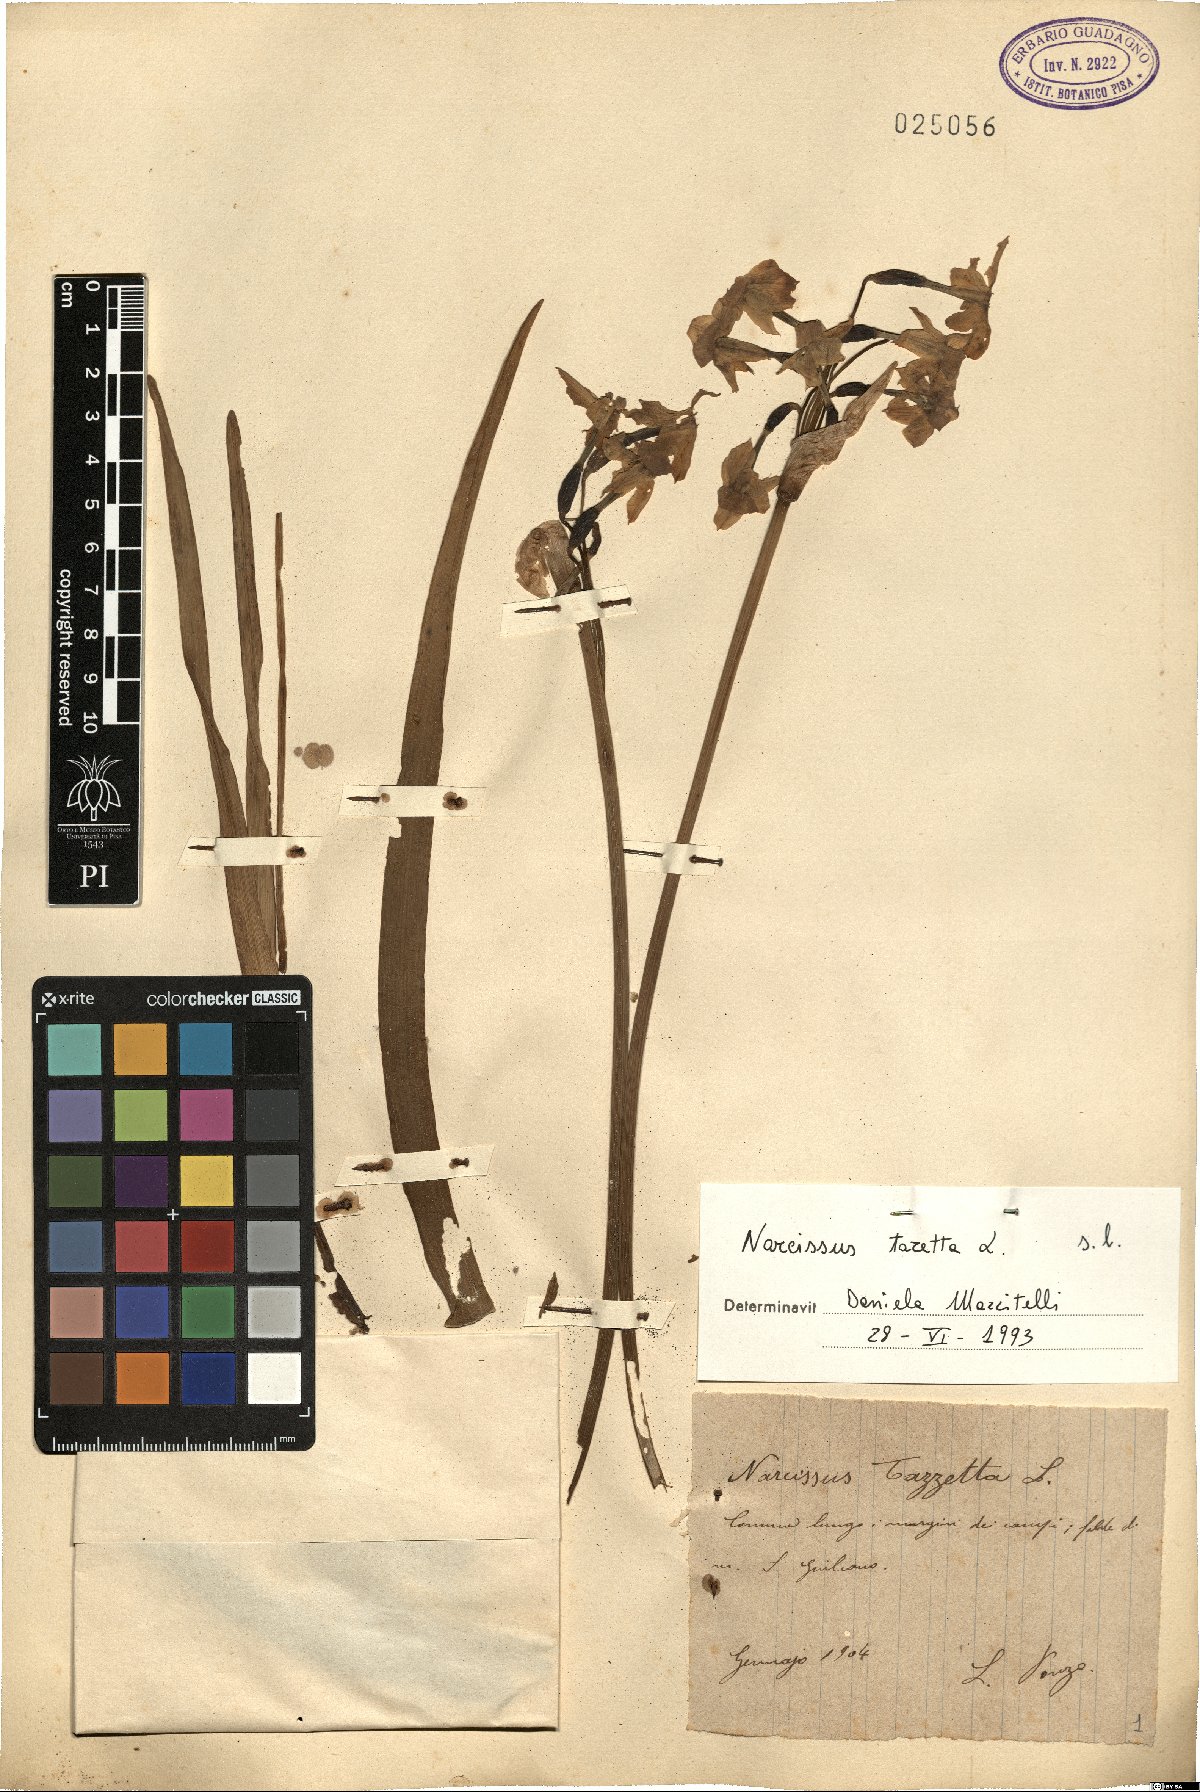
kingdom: Plantae
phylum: Tracheophyta
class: Liliopsida
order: Asparagales
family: Amaryllidaceae
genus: Narcissus
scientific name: Narcissus tazetta
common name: Bunch-flowered daffodil
